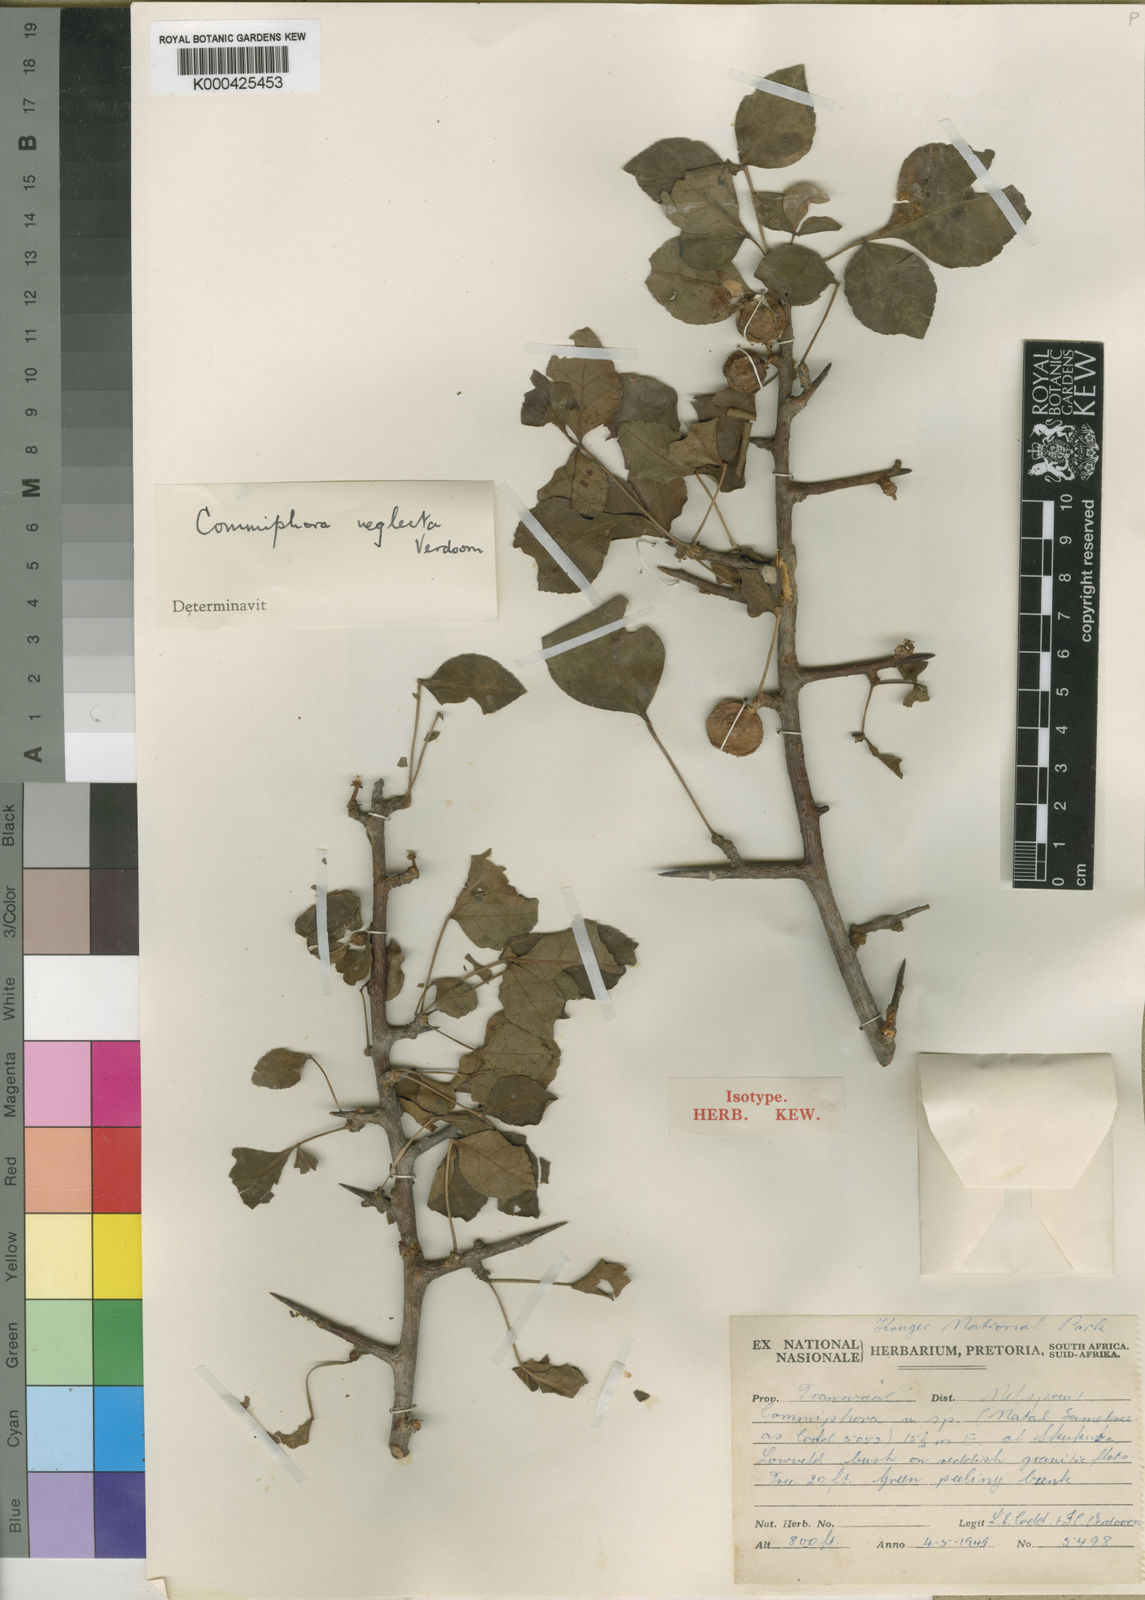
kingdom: Plantae
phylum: Tracheophyta
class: Magnoliopsida
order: Sapindales
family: Burseraceae
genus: Commiphora
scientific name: Commiphora neglecta
